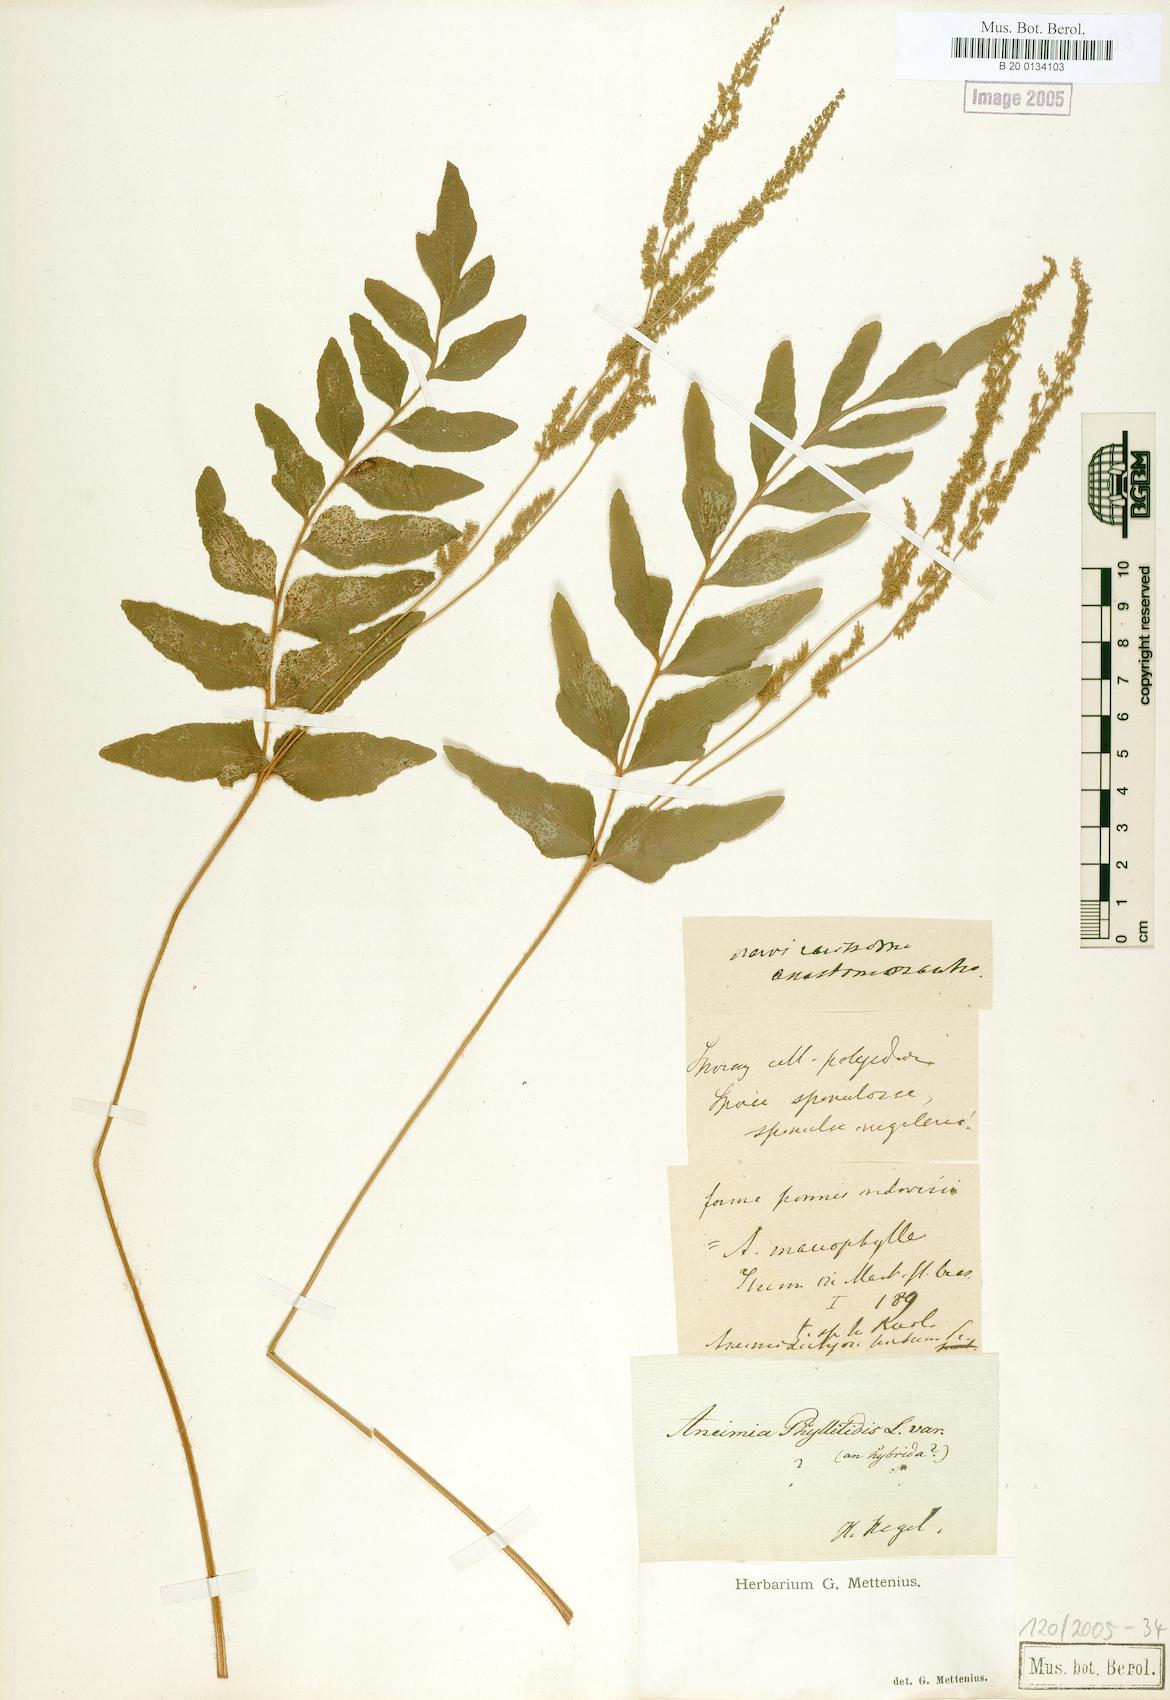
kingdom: Plantae
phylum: Tracheophyta
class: Polypodiopsida
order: Schizaeales
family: Anemiaceae
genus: Anemia
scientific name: Anemia hirta
